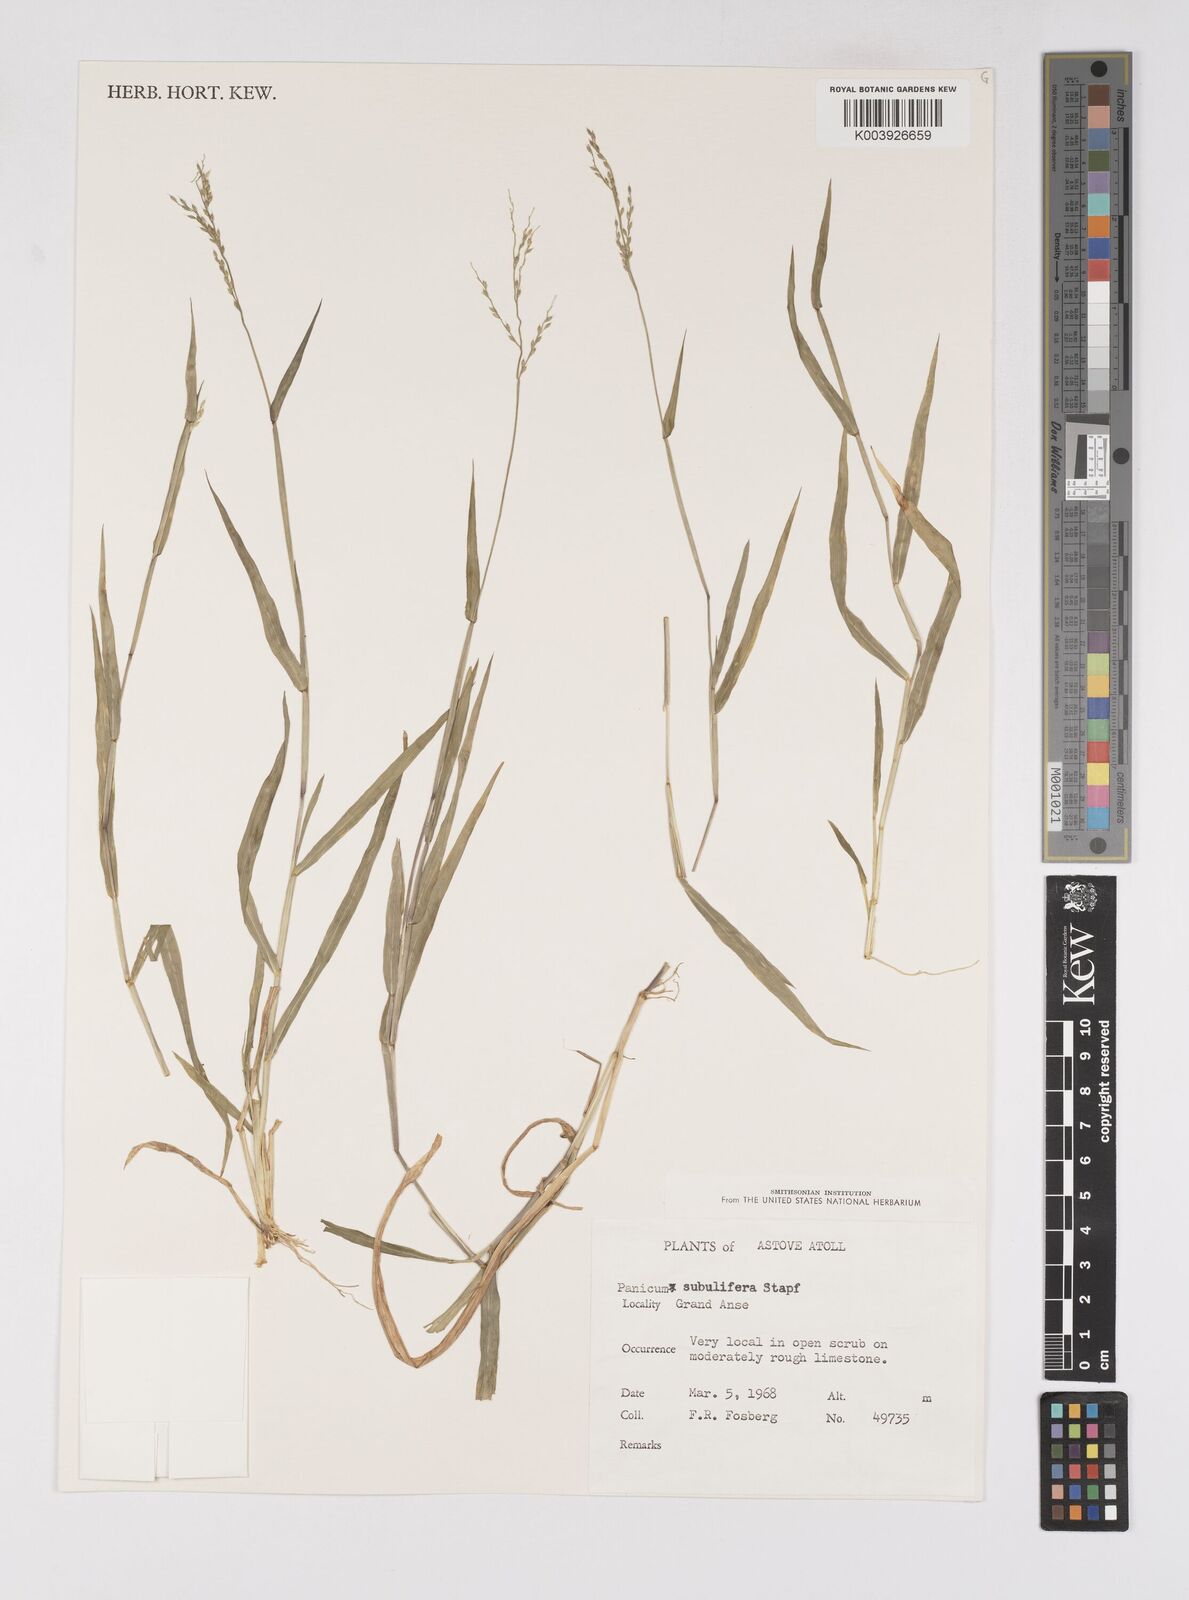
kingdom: Plantae
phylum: Tracheophyta
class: Liliopsida
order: Poales
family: Poaceae
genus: Eriochloa
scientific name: Eriochloa subulifera
